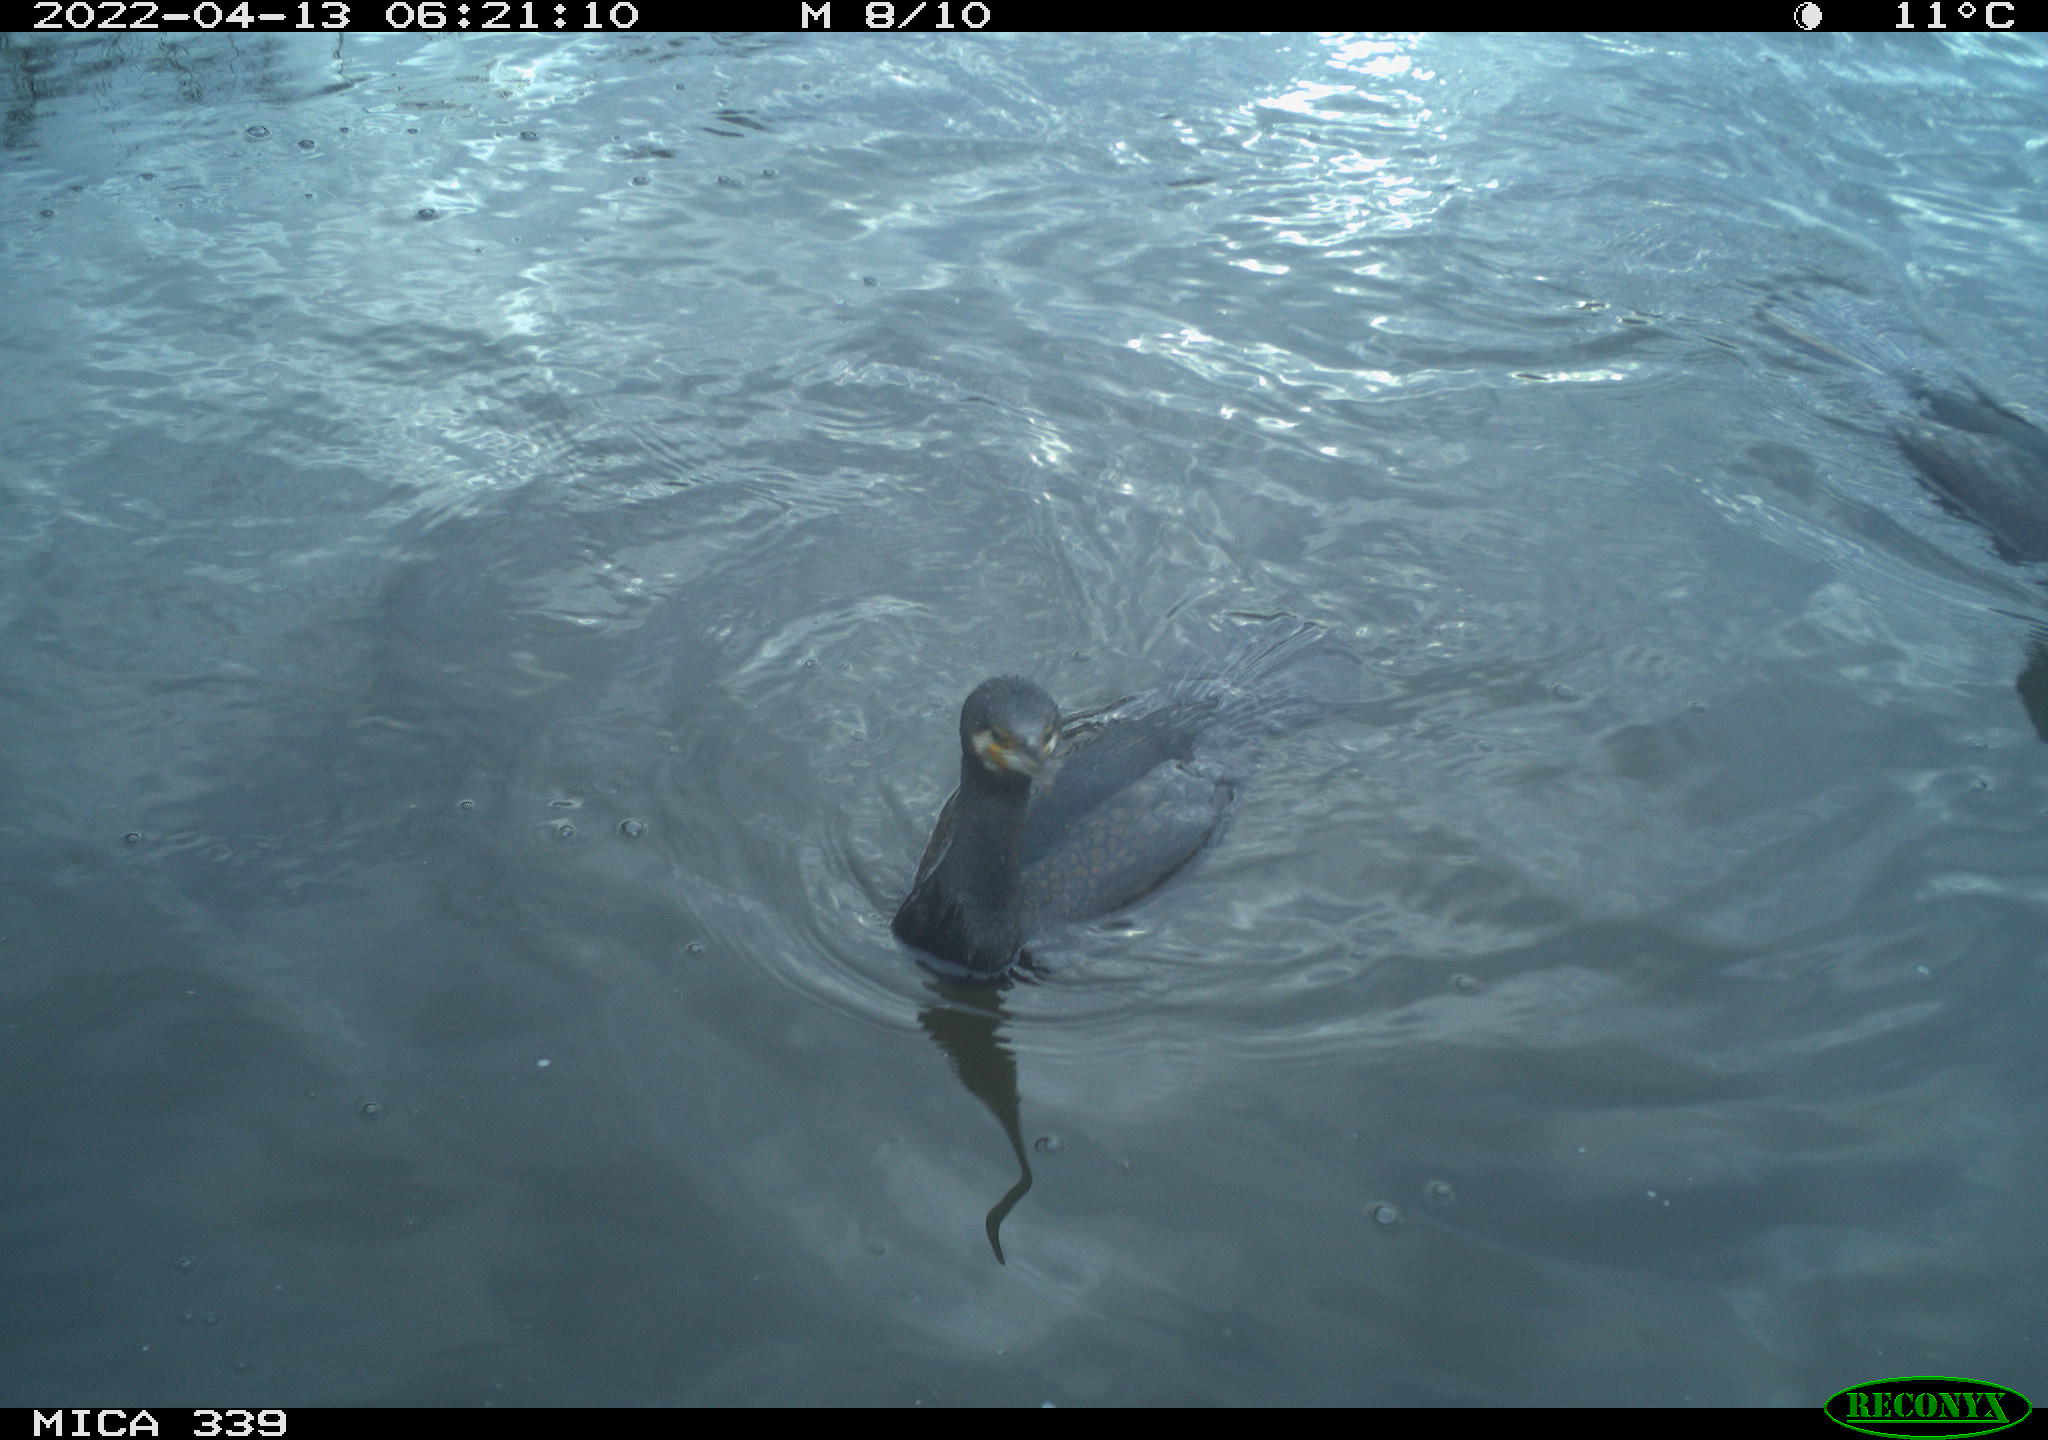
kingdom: Animalia
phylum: Chordata
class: Aves
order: Suliformes
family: Phalacrocoracidae
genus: Phalacrocorax
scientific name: Phalacrocorax carbo
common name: Great cormorant
